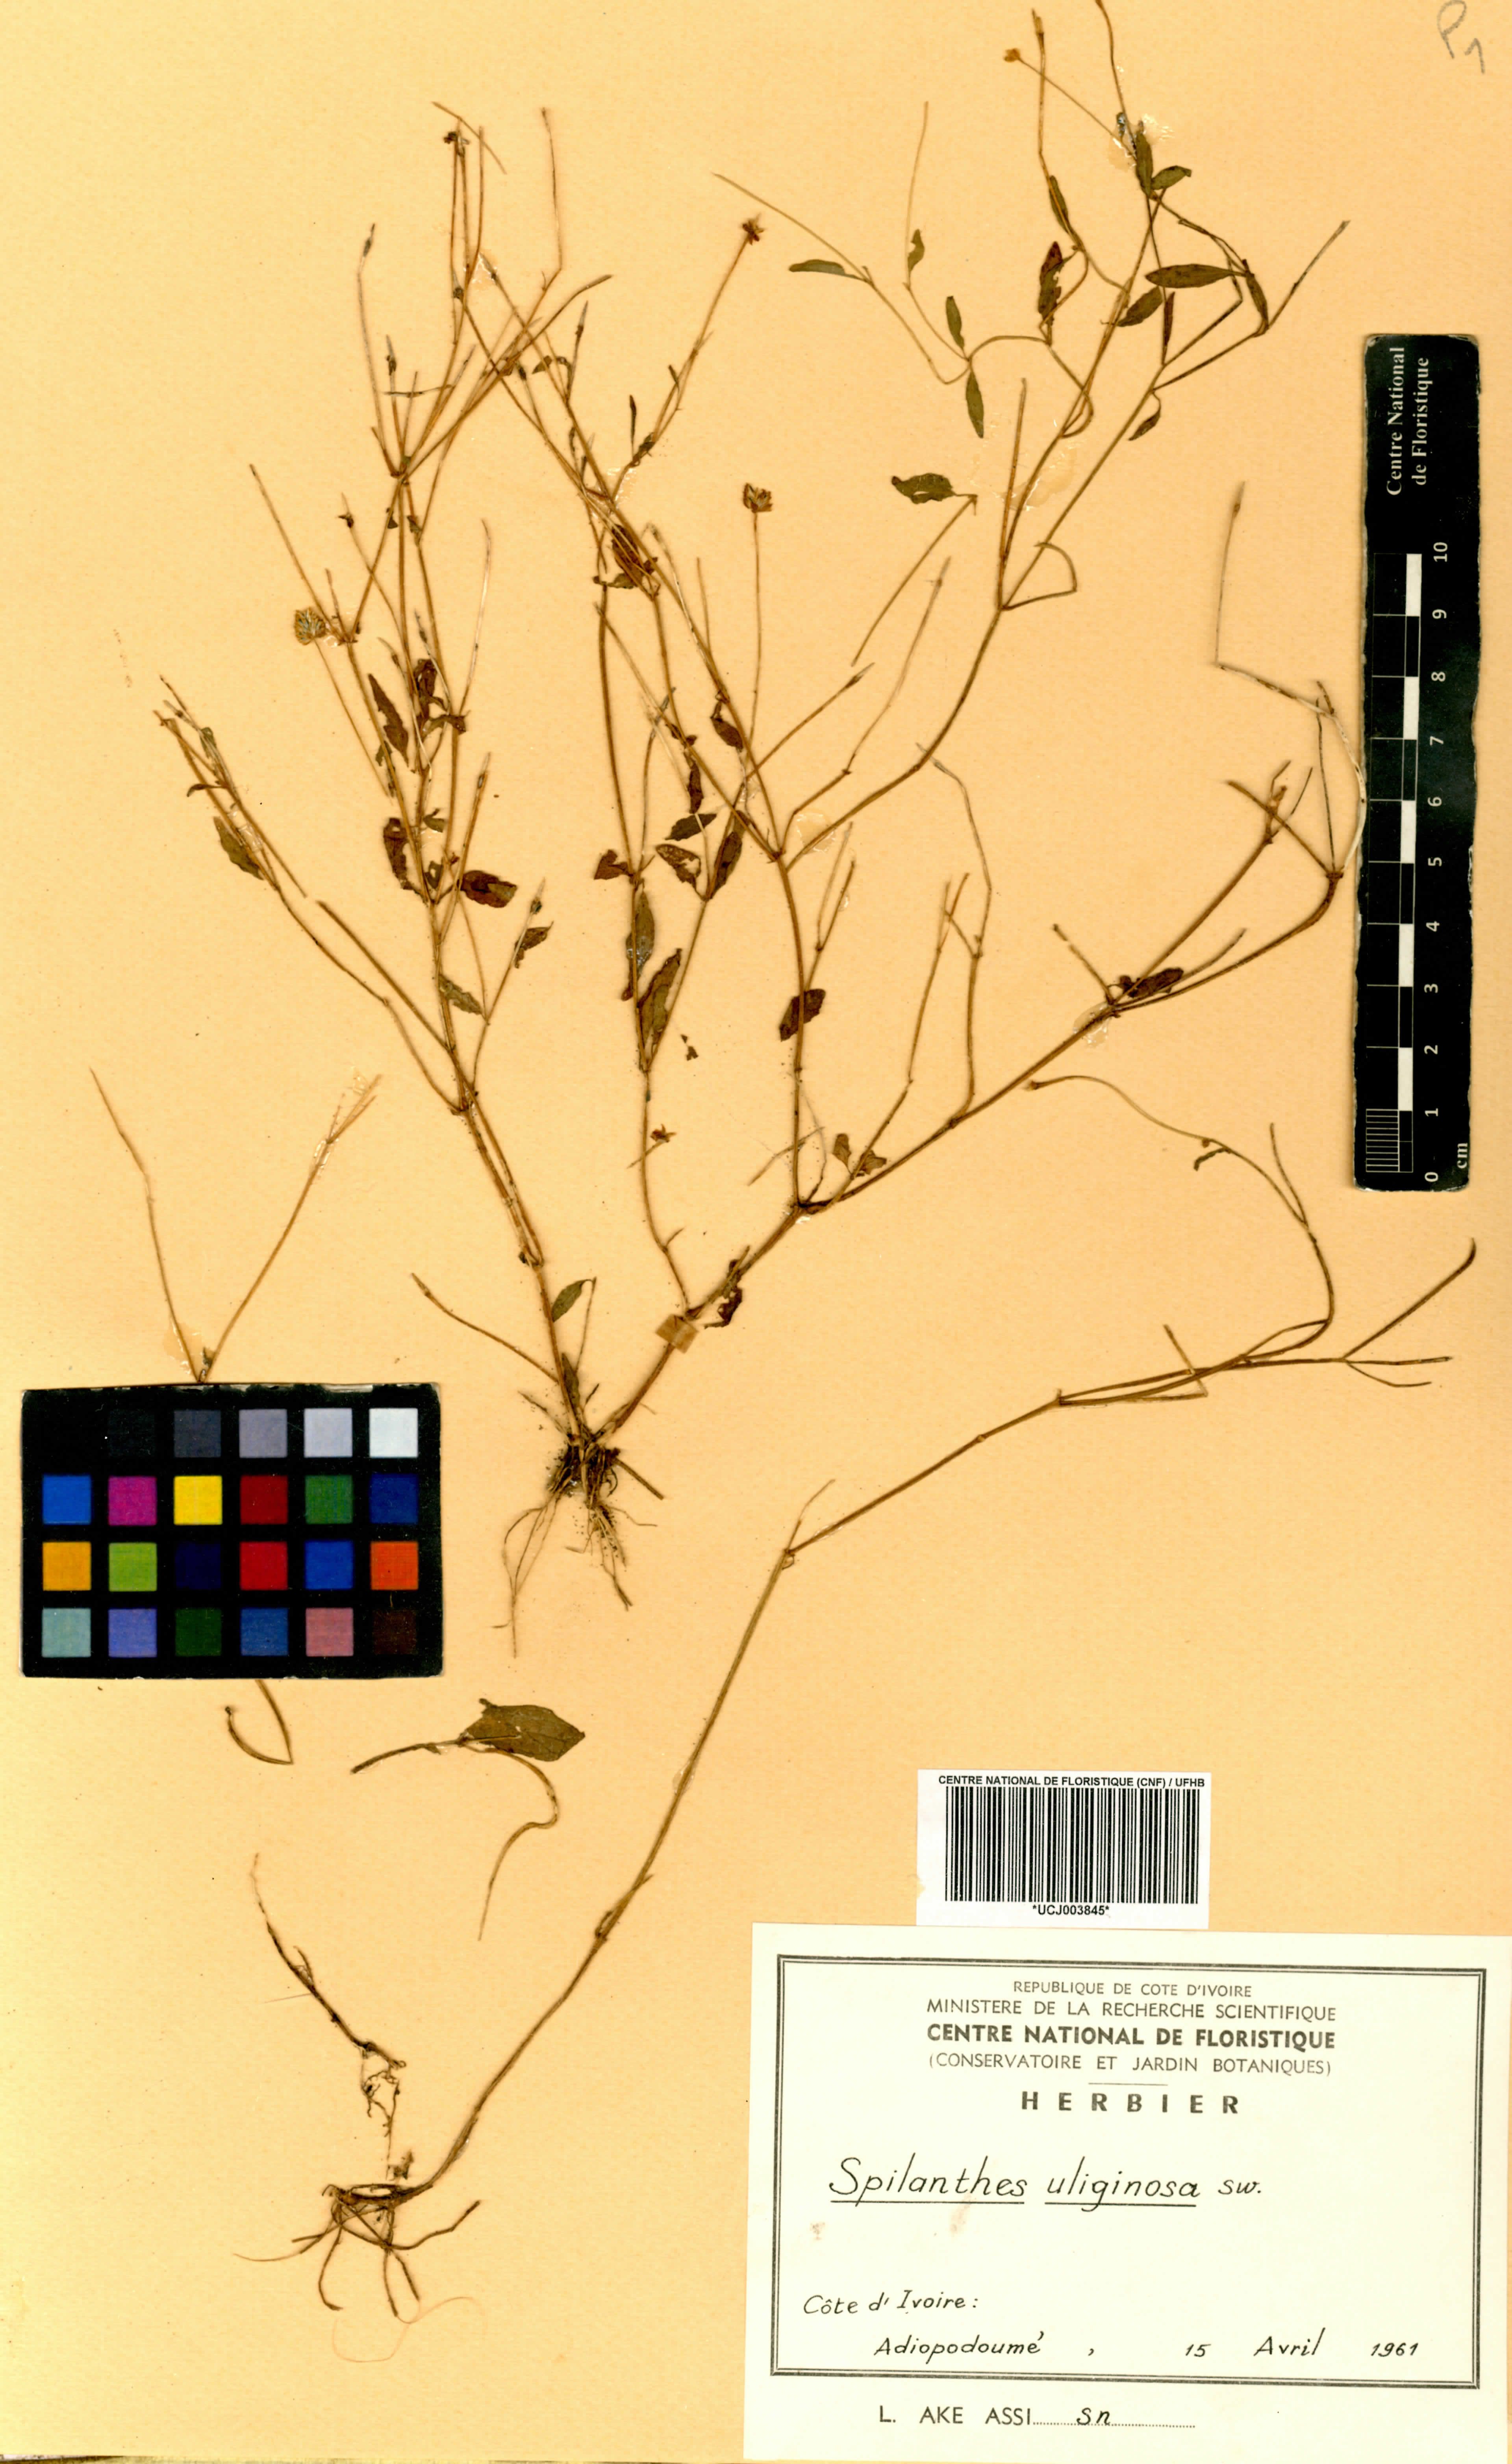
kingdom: Plantae
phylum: Tracheophyta
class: Magnoliopsida
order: Asterales
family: Asteraceae
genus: Acmella
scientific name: Acmella uliginosa
